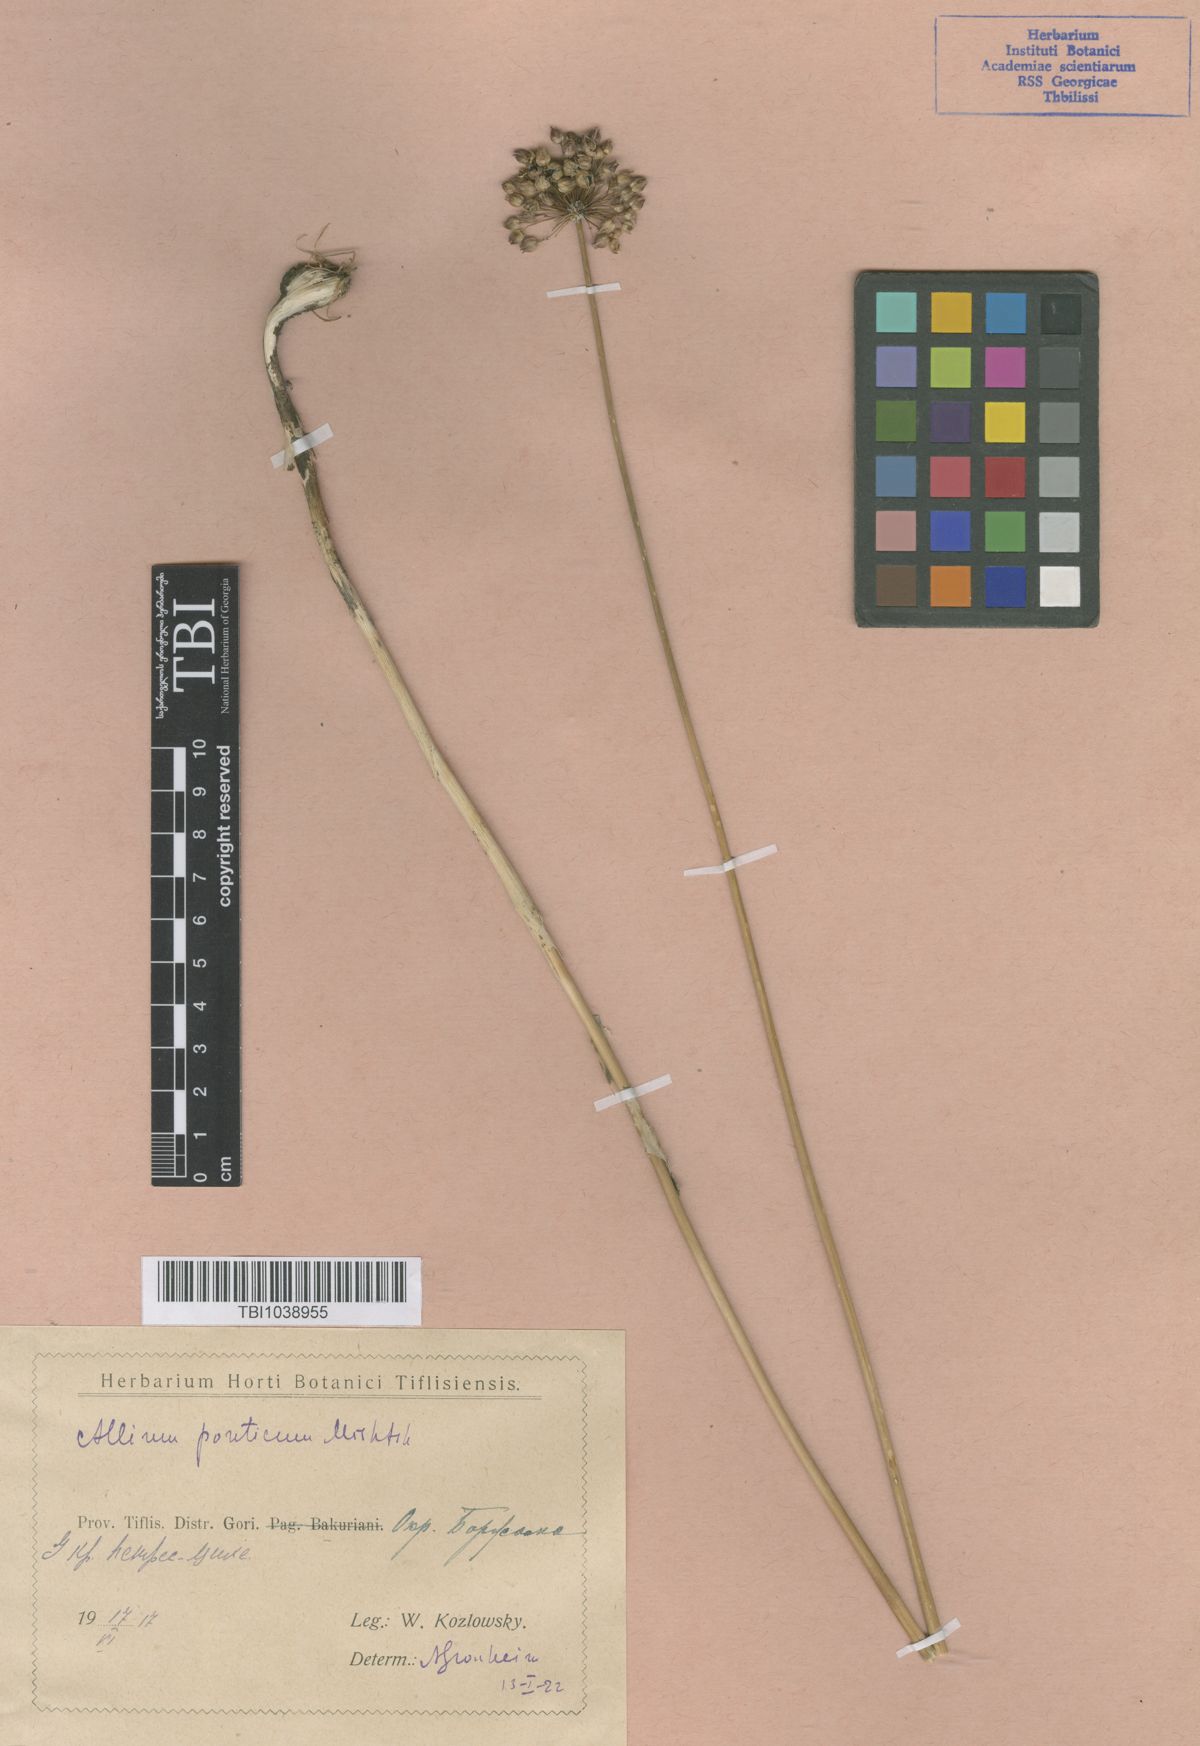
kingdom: Plantae
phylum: Tracheophyta
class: Liliopsida
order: Asparagales
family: Amaryllidaceae
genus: Allium
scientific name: Allium ponticum
